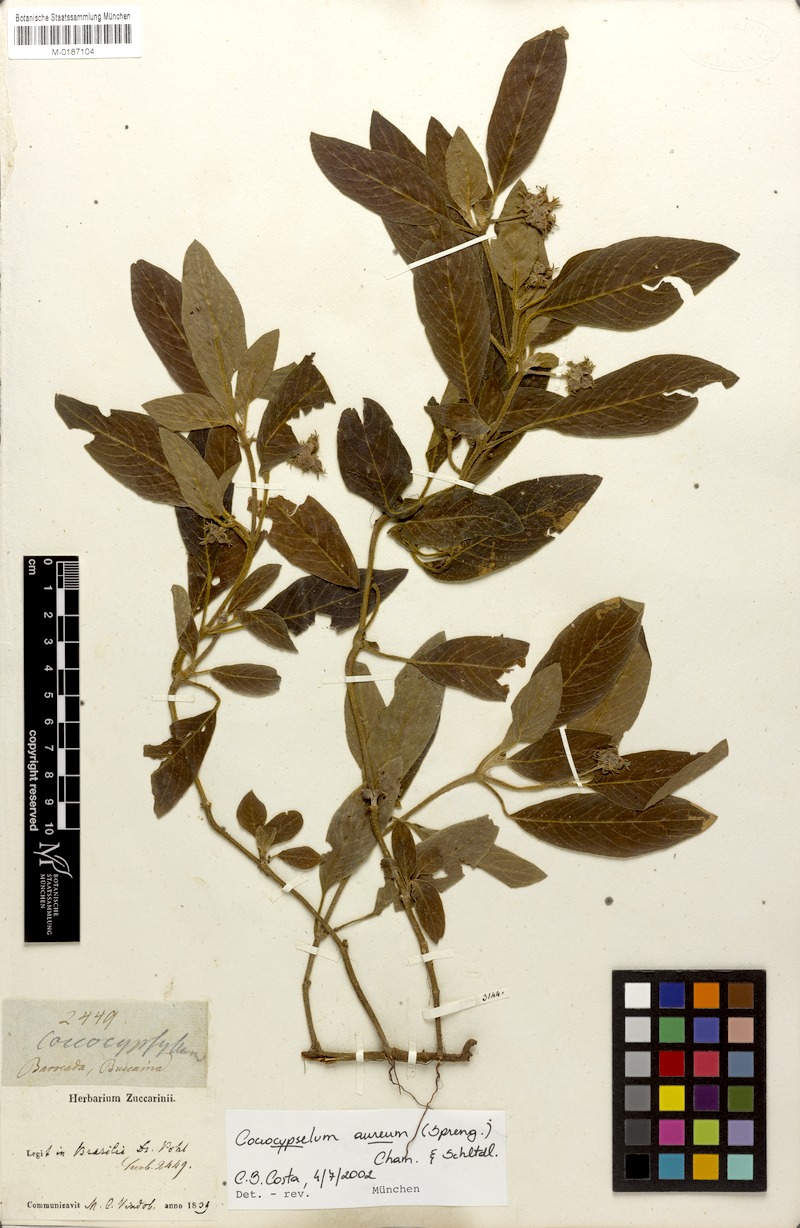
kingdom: Plantae
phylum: Tracheophyta
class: Magnoliopsida
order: Gentianales
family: Rubiaceae
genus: Coccocypselum
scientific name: Coccocypselum aureum
